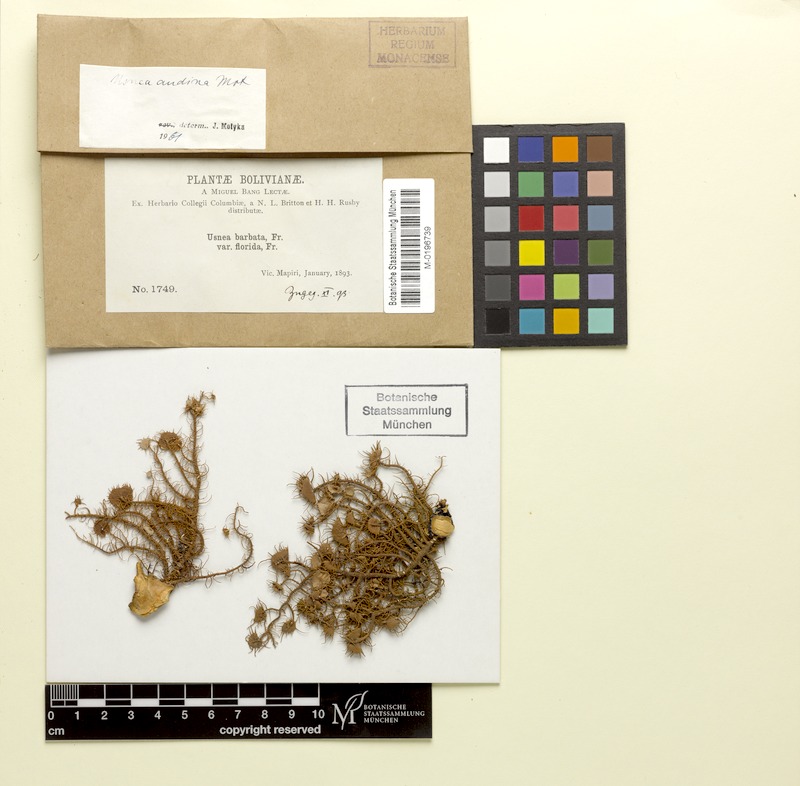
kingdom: Fungi
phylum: Ascomycota
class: Lecanoromycetes
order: Lecanorales
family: Parmeliaceae
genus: Usnea
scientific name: Usnea andina
